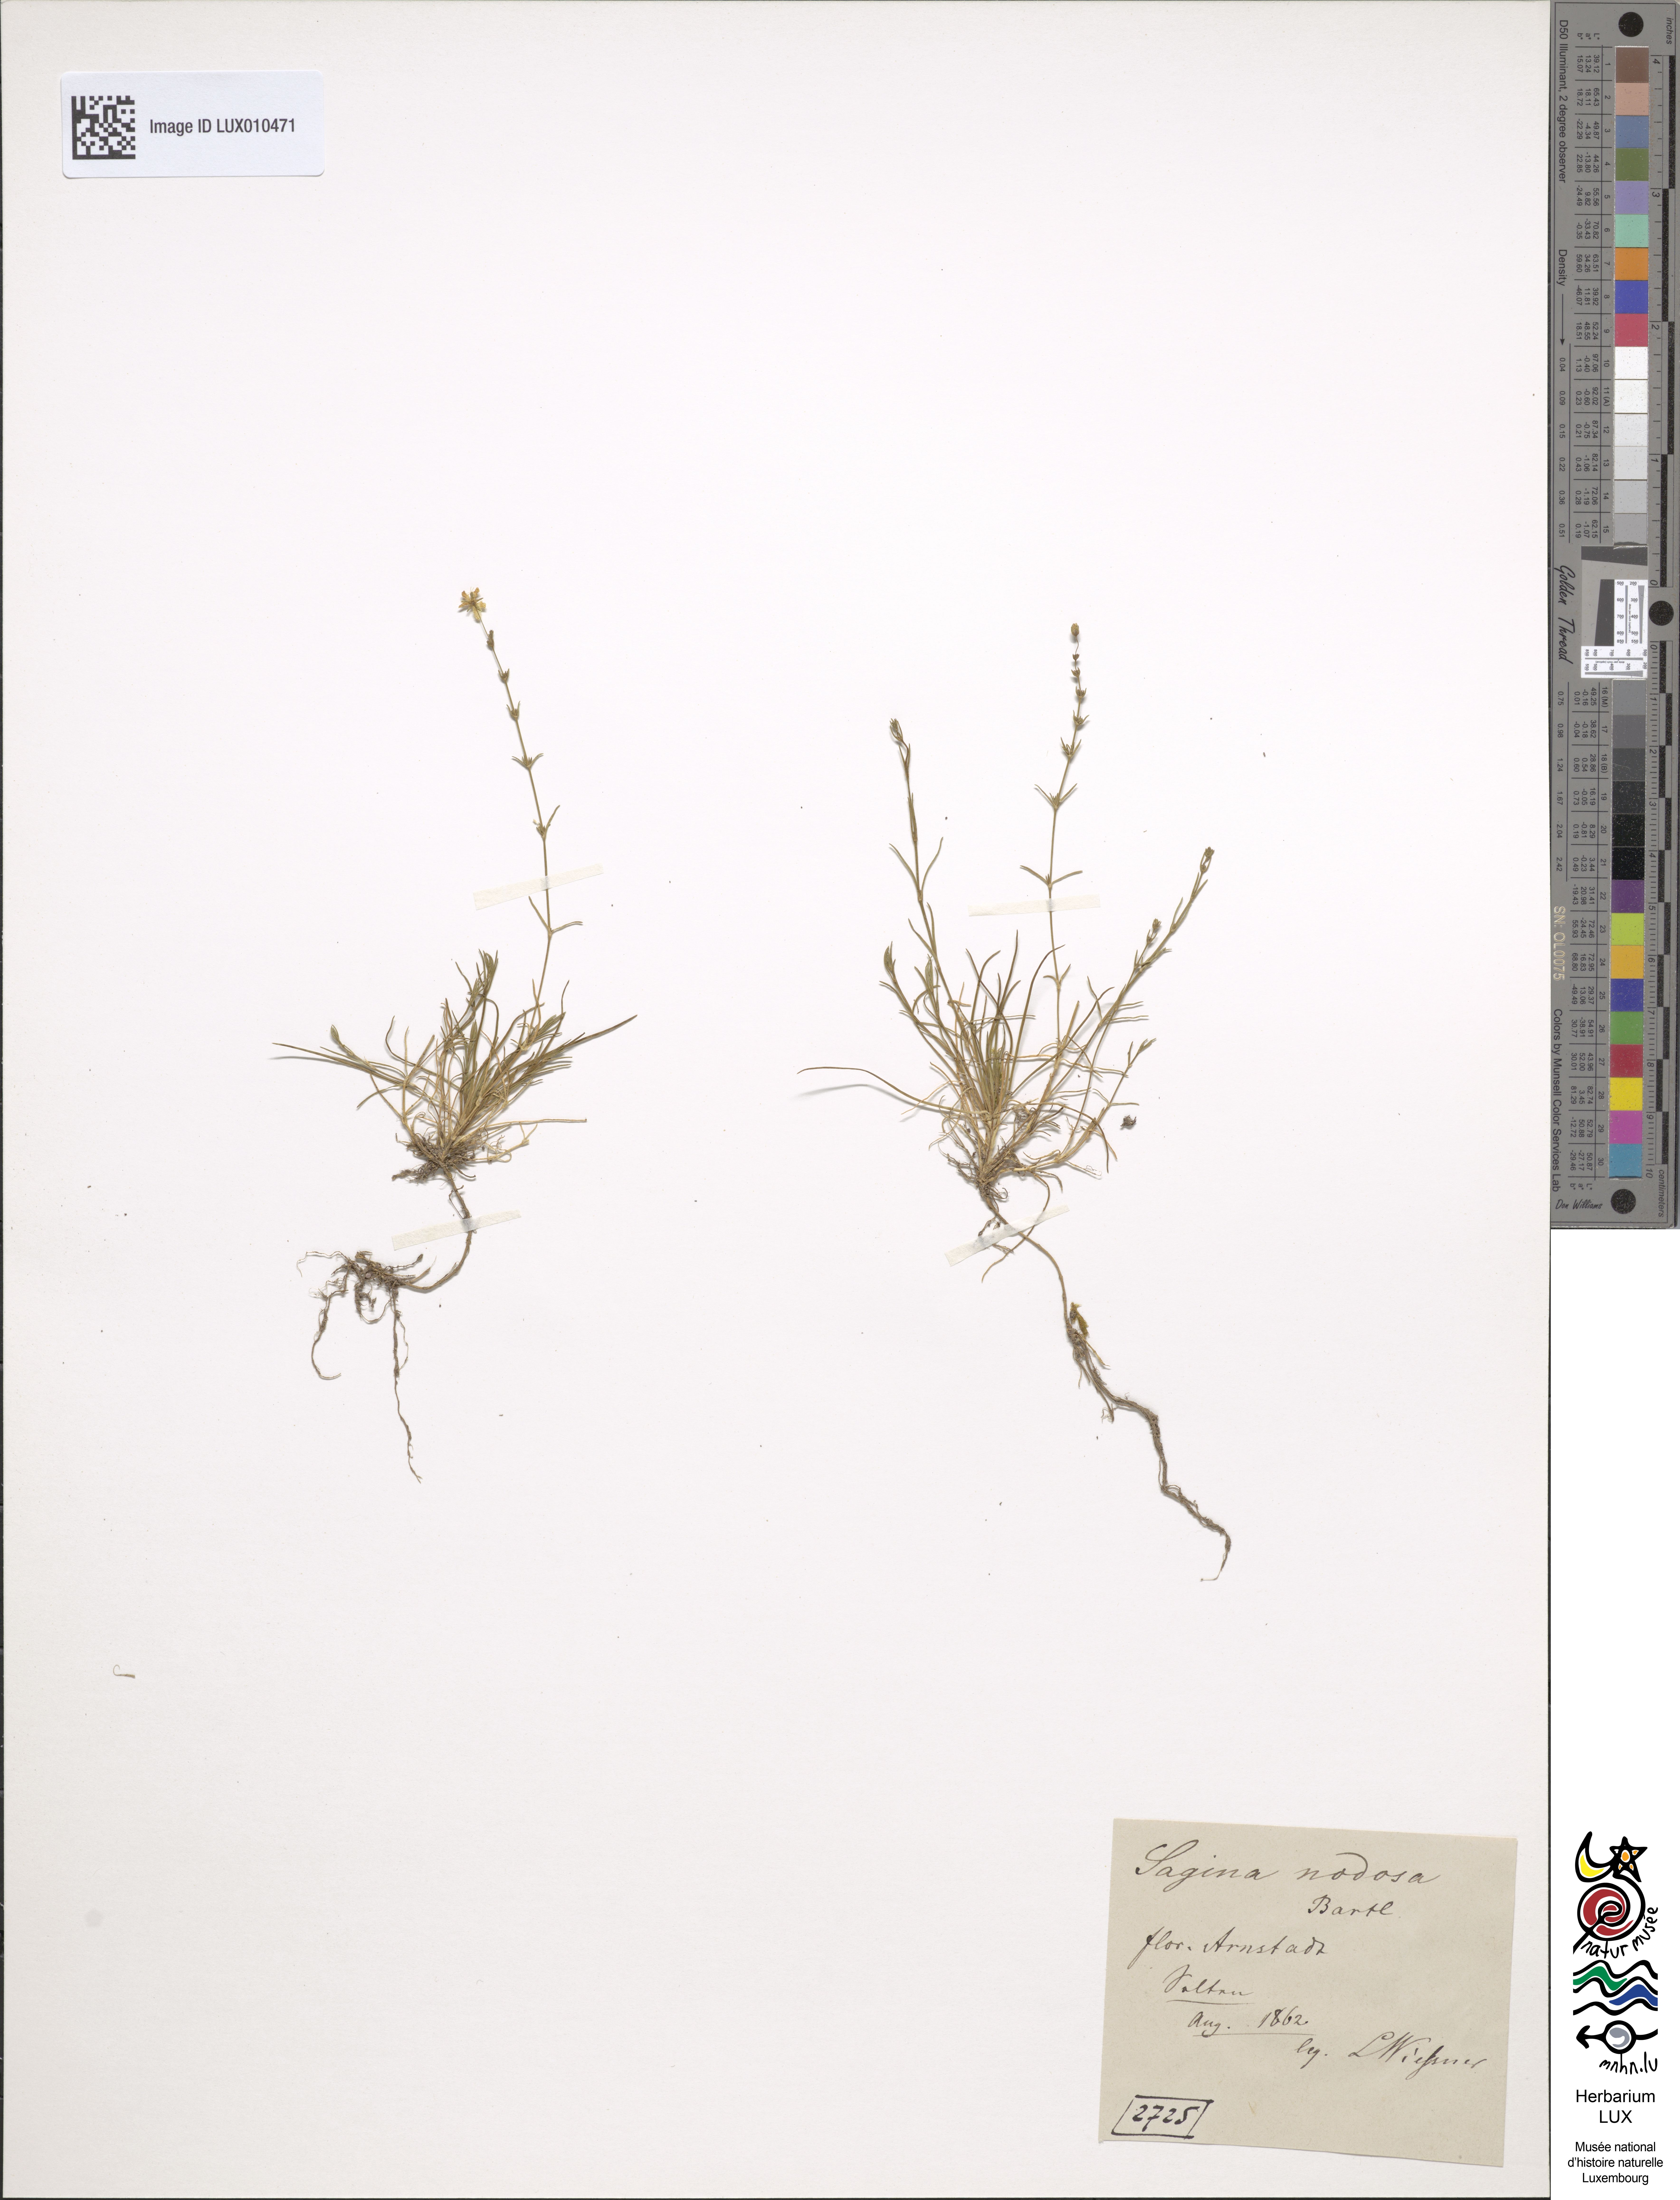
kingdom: Plantae
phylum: Tracheophyta
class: Magnoliopsida
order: Caryophyllales
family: Caryophyllaceae
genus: Sagina
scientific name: Sagina nodosa
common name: Knotted pearlwort
